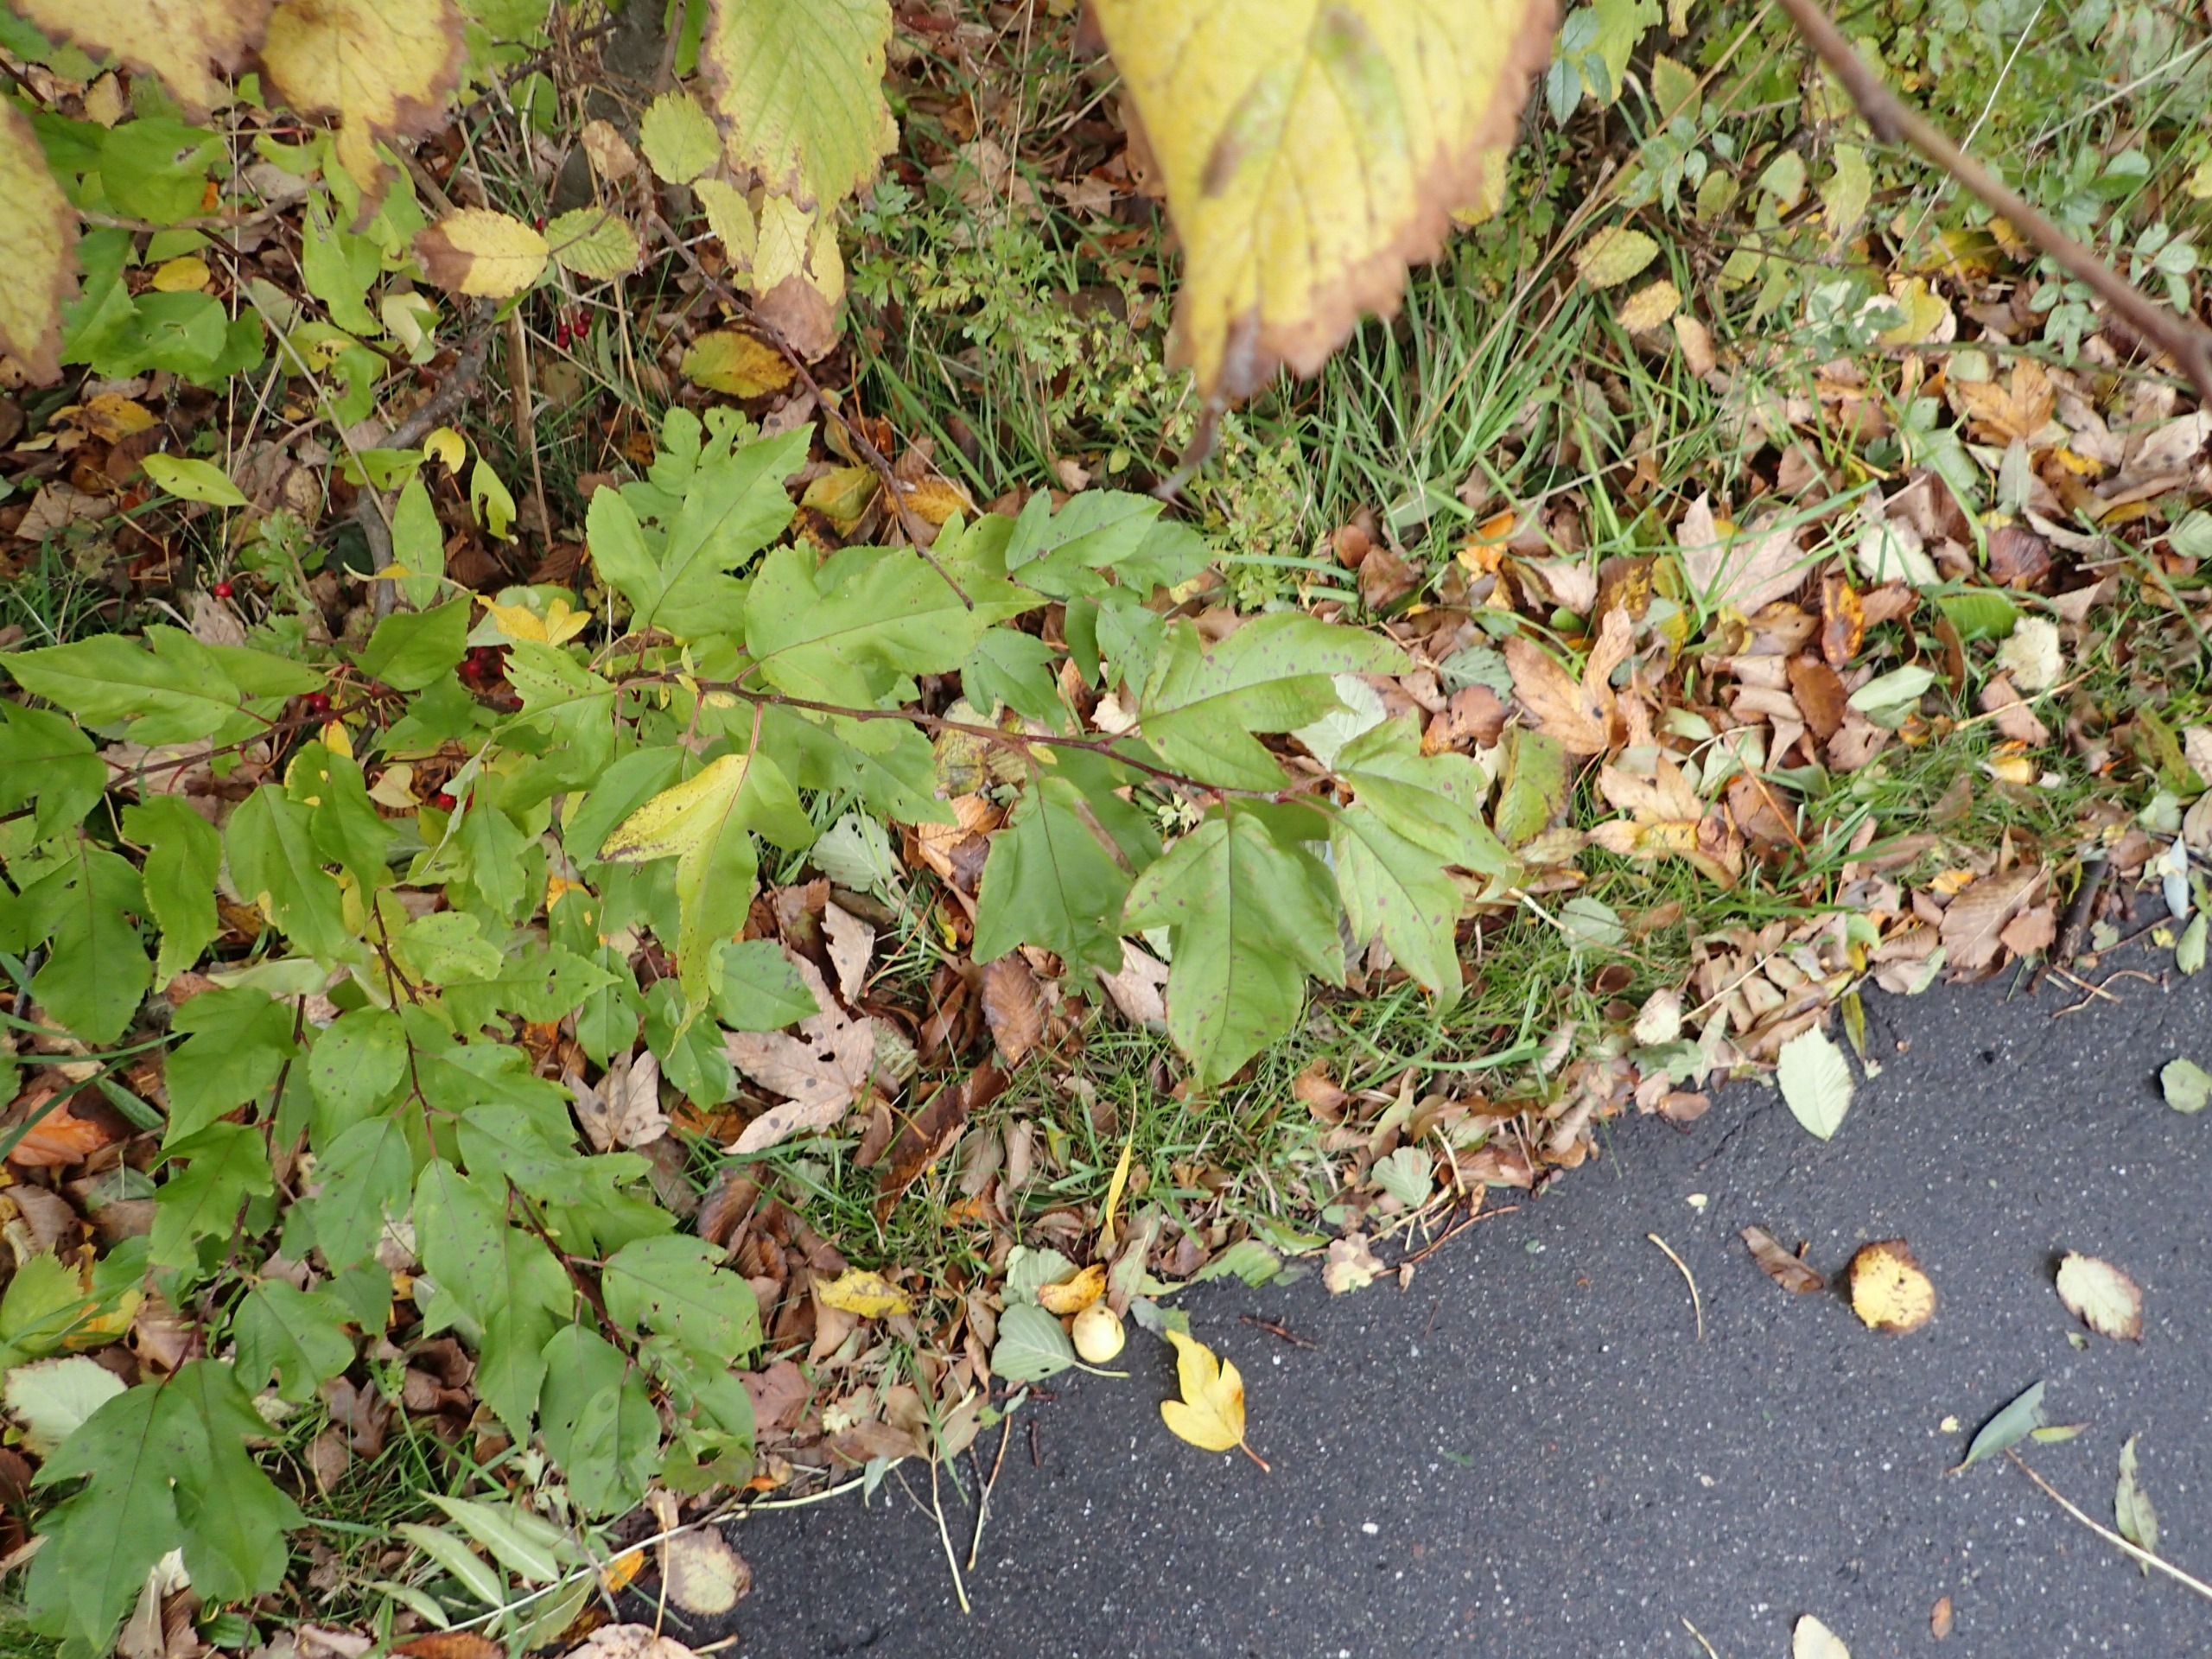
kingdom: Plantae
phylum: Tracheophyta
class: Magnoliopsida
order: Rosales
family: Rosaceae
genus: Malus
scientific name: Malus toringo
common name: Sargents-æble
